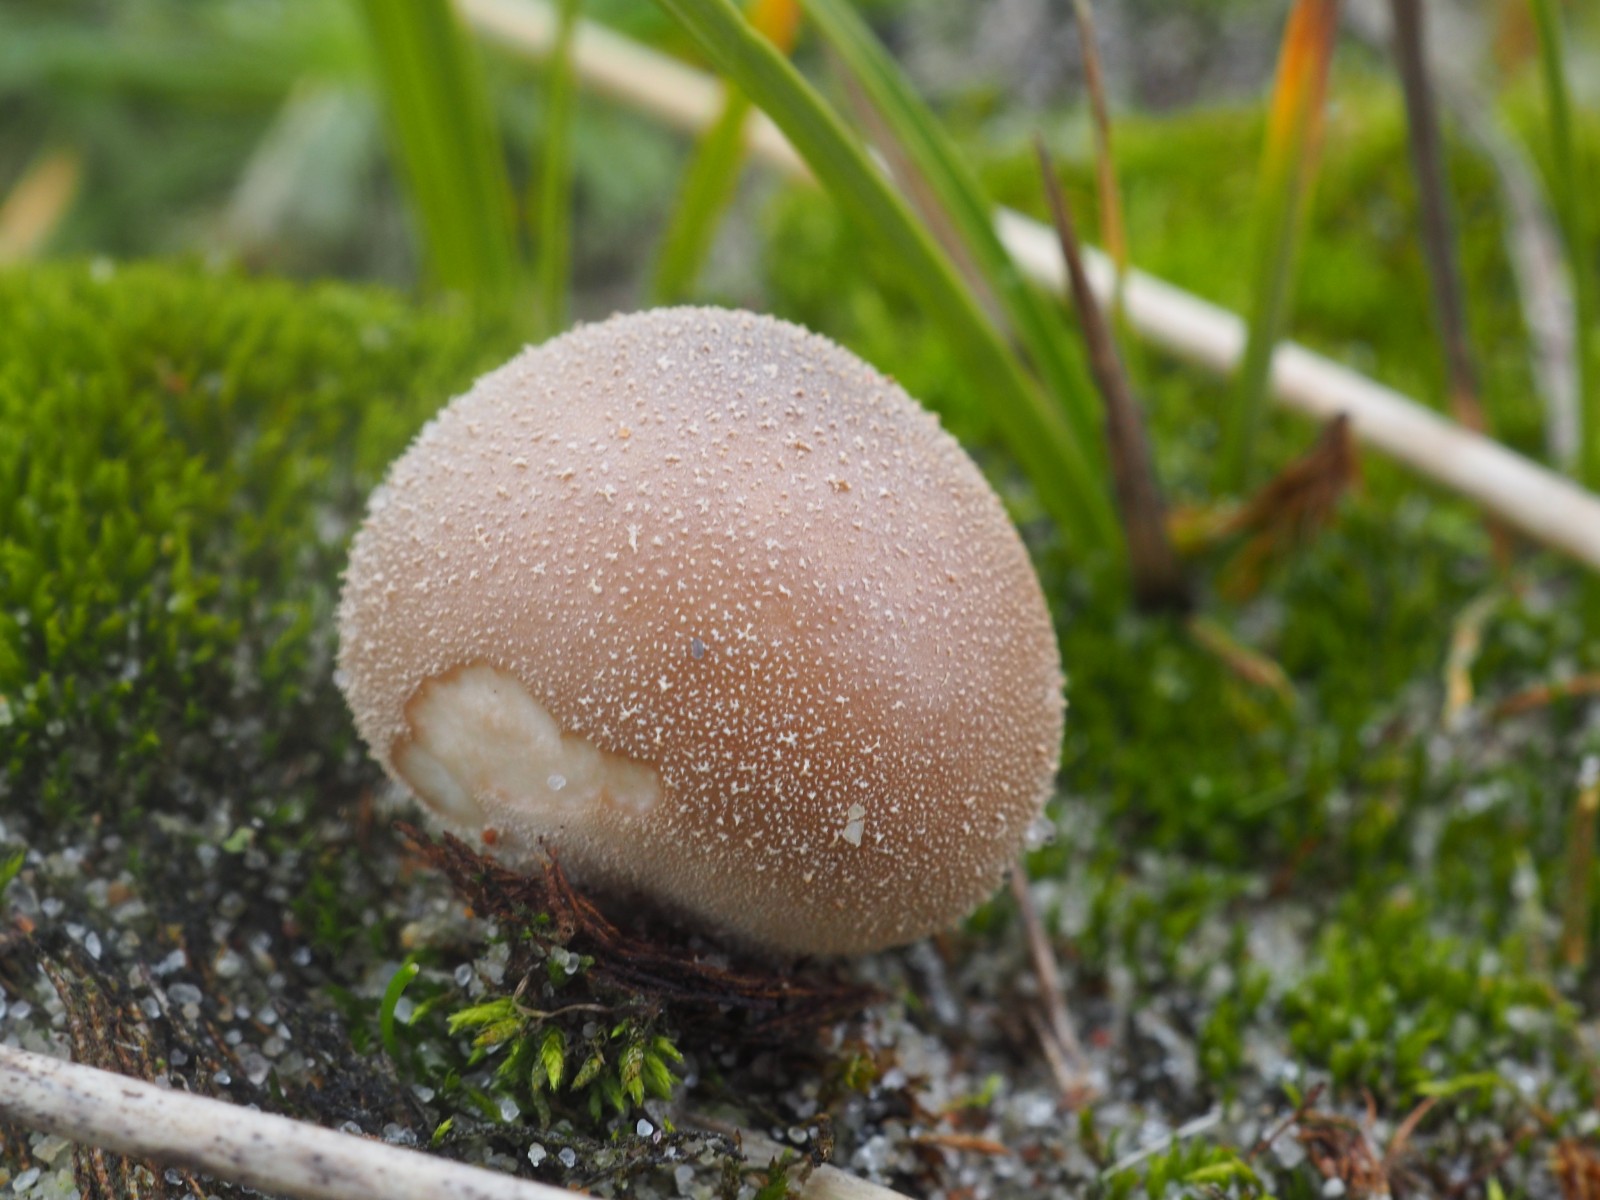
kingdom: Fungi
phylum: Basidiomycota
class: Agaricomycetes
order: Agaricales
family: Lycoperdaceae
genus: Lycoperdon
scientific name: Lycoperdon lividum
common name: mark-støvbold
